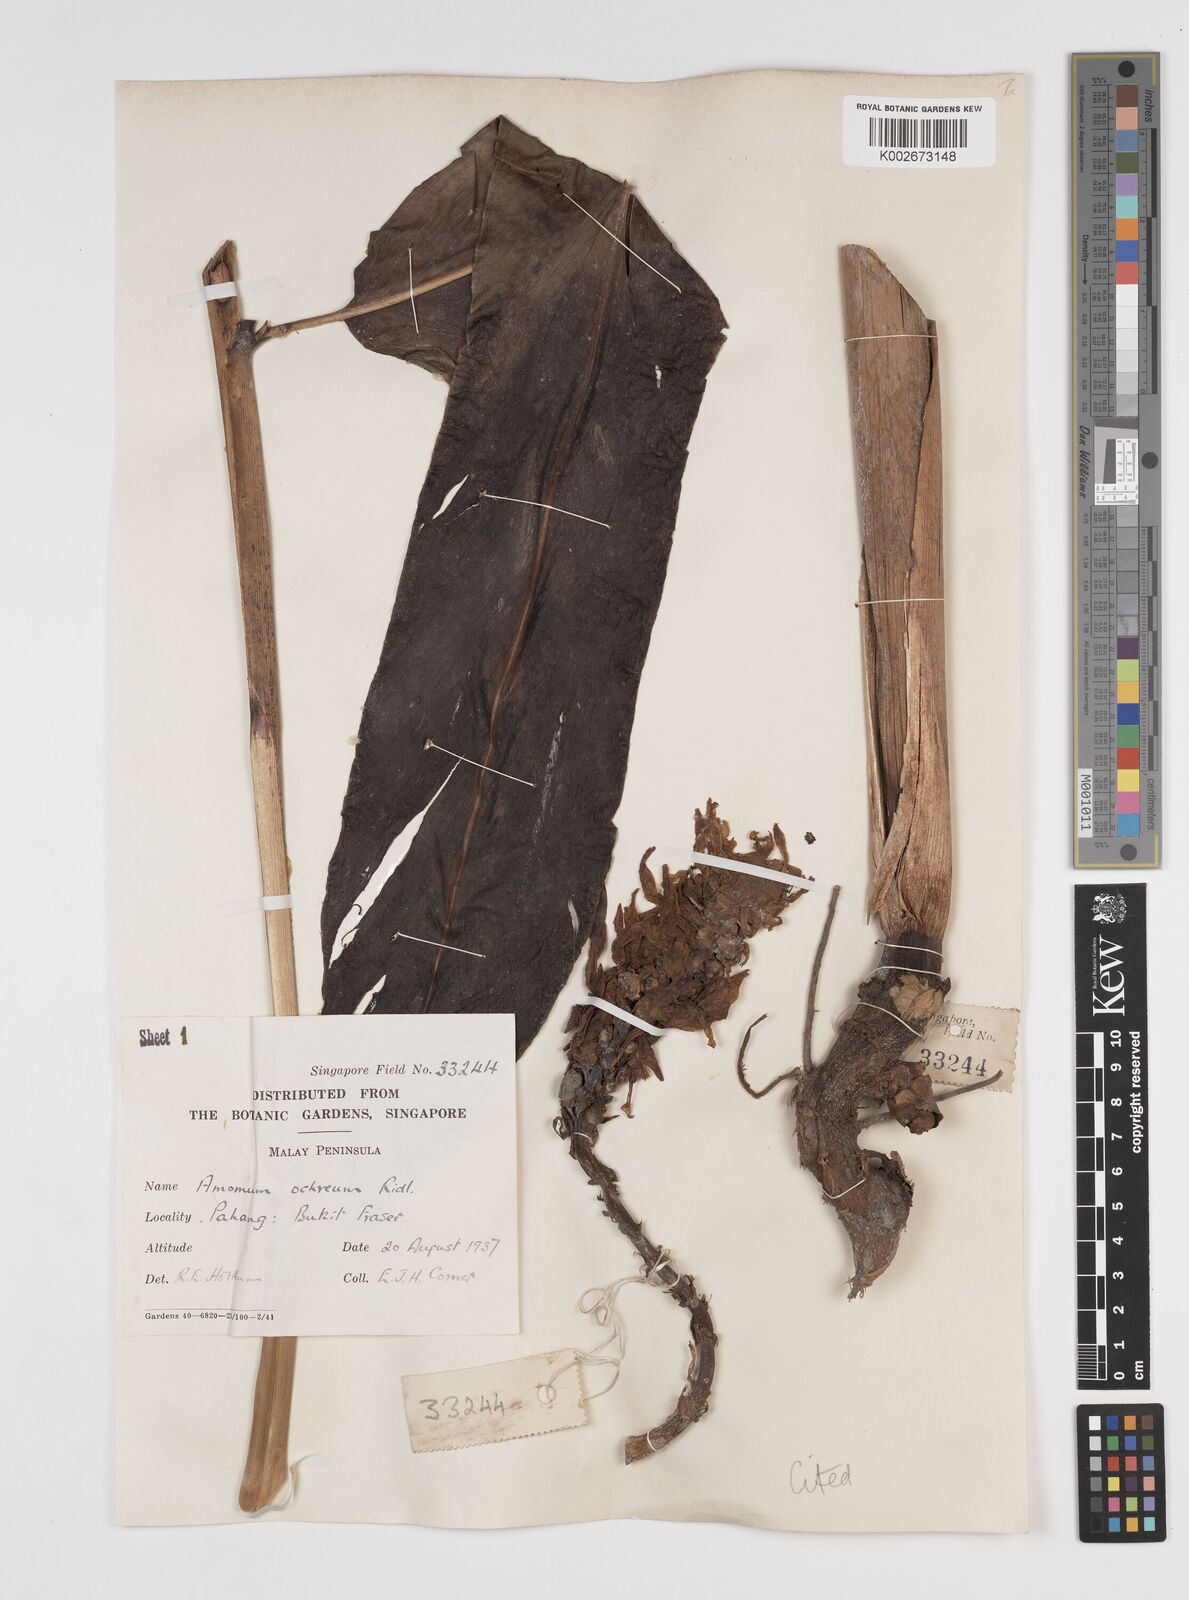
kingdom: Plantae
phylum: Tracheophyta
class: Liliopsida
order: Zingiberales
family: Zingiberaceae
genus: Meistera
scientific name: Meistera ochrea
